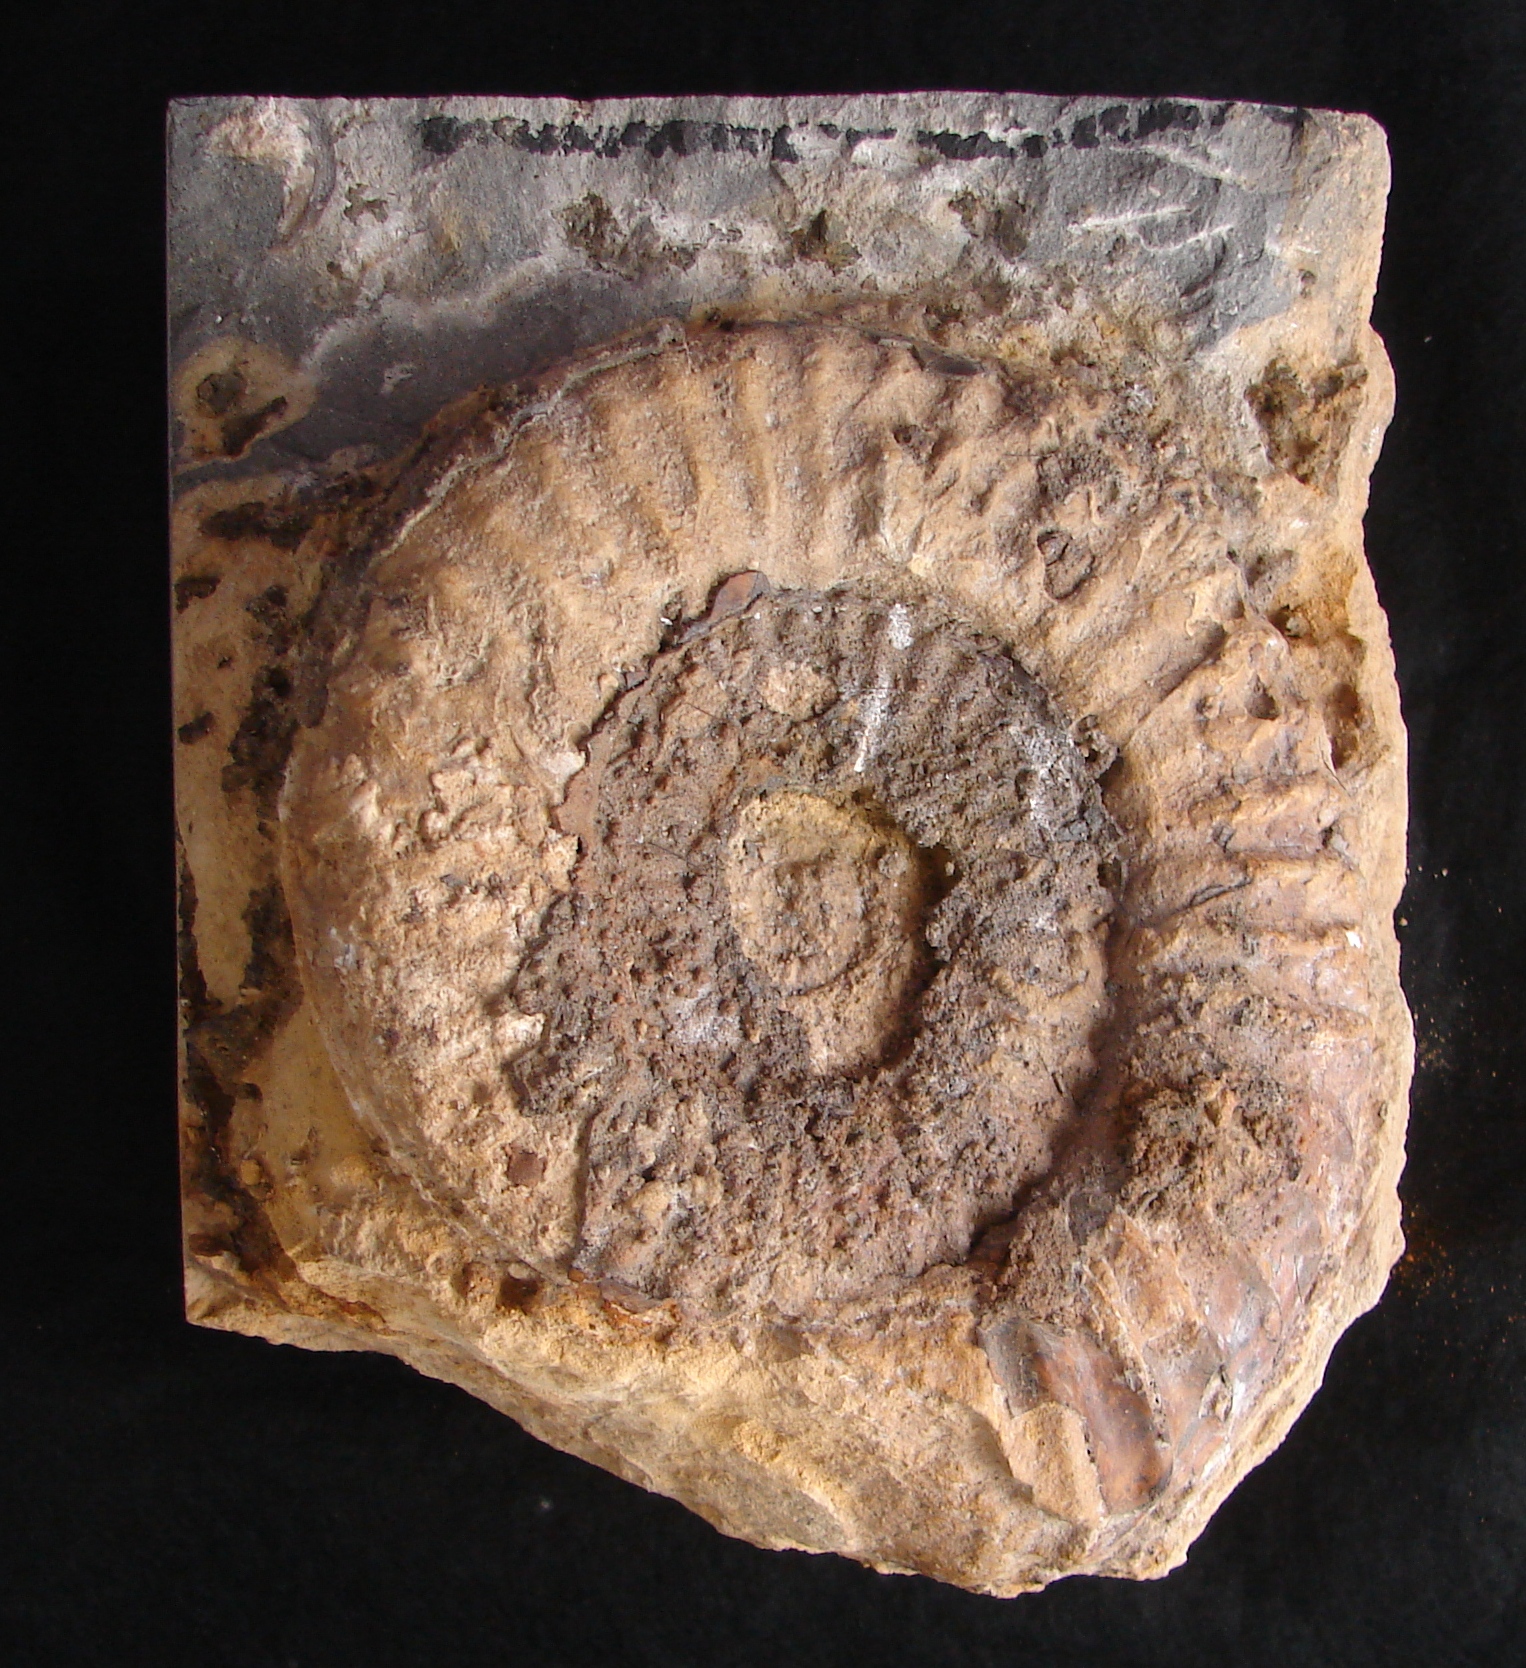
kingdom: Animalia
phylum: Mollusca
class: Cephalopoda
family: Arietitidae
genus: Arietites
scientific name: Arietites
